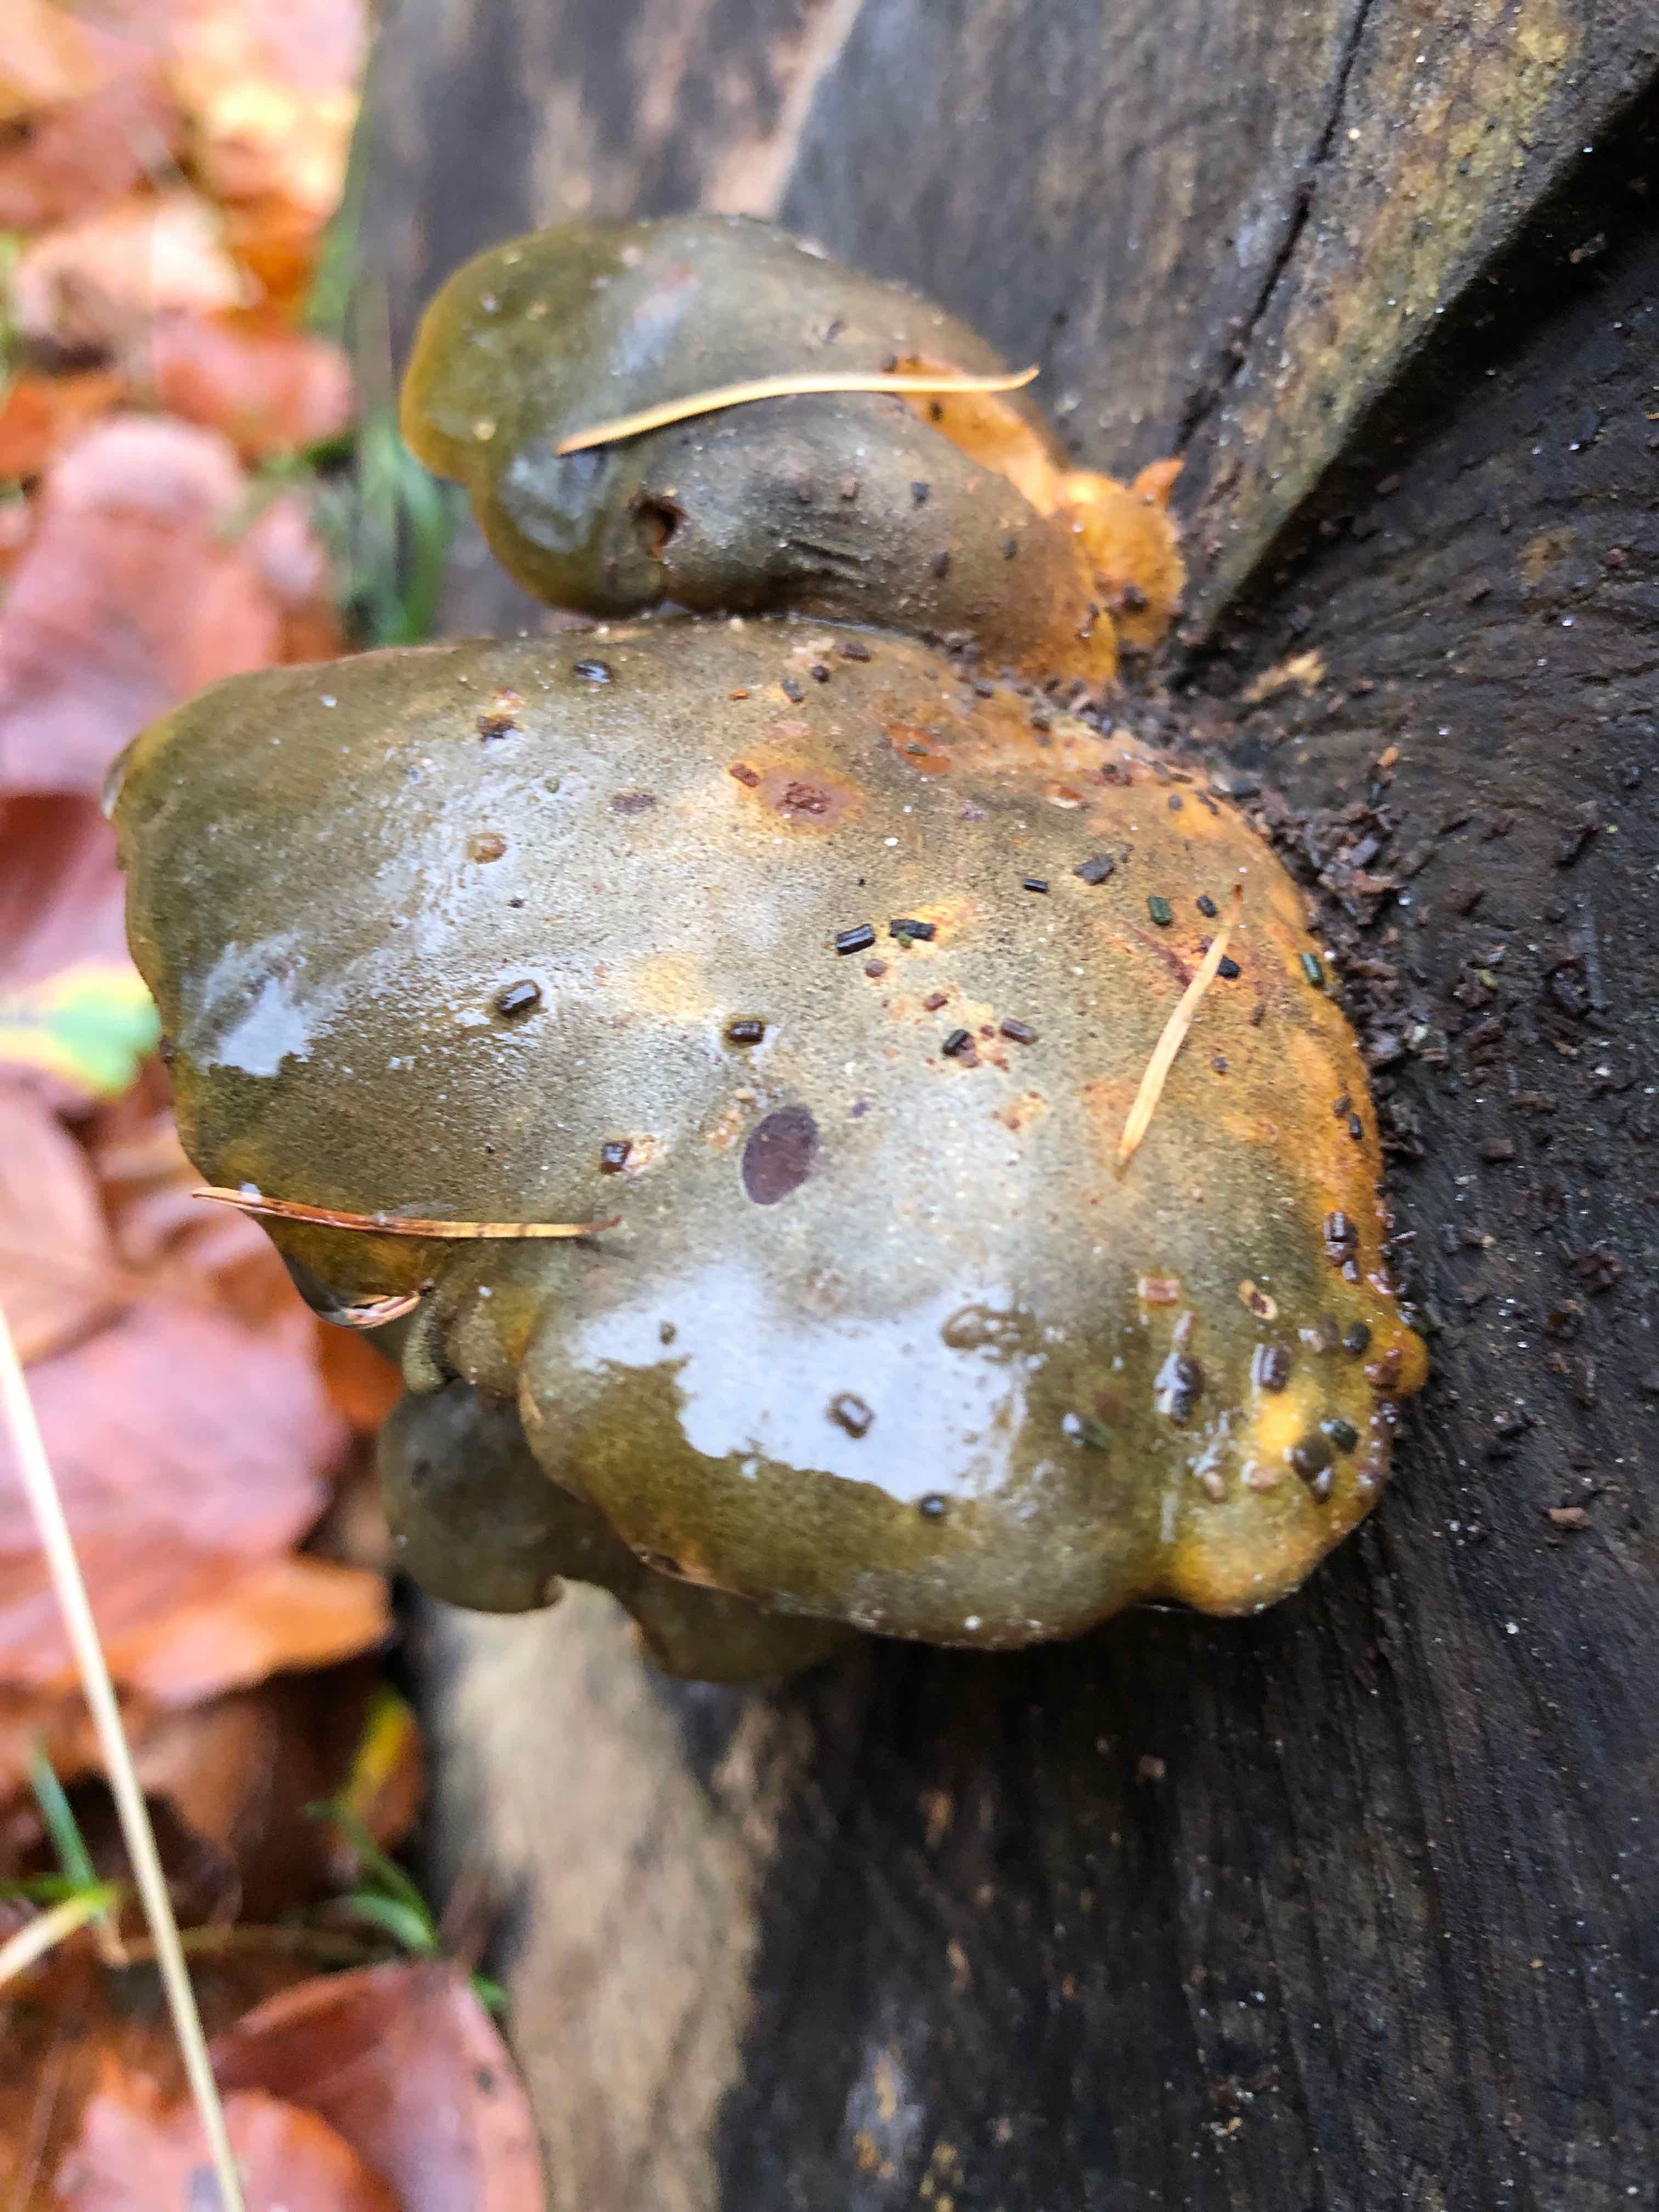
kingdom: Fungi
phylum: Basidiomycota
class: Agaricomycetes
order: Agaricales
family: Sarcomyxaceae
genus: Sarcomyxa
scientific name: Sarcomyxa serotina
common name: gummihat
